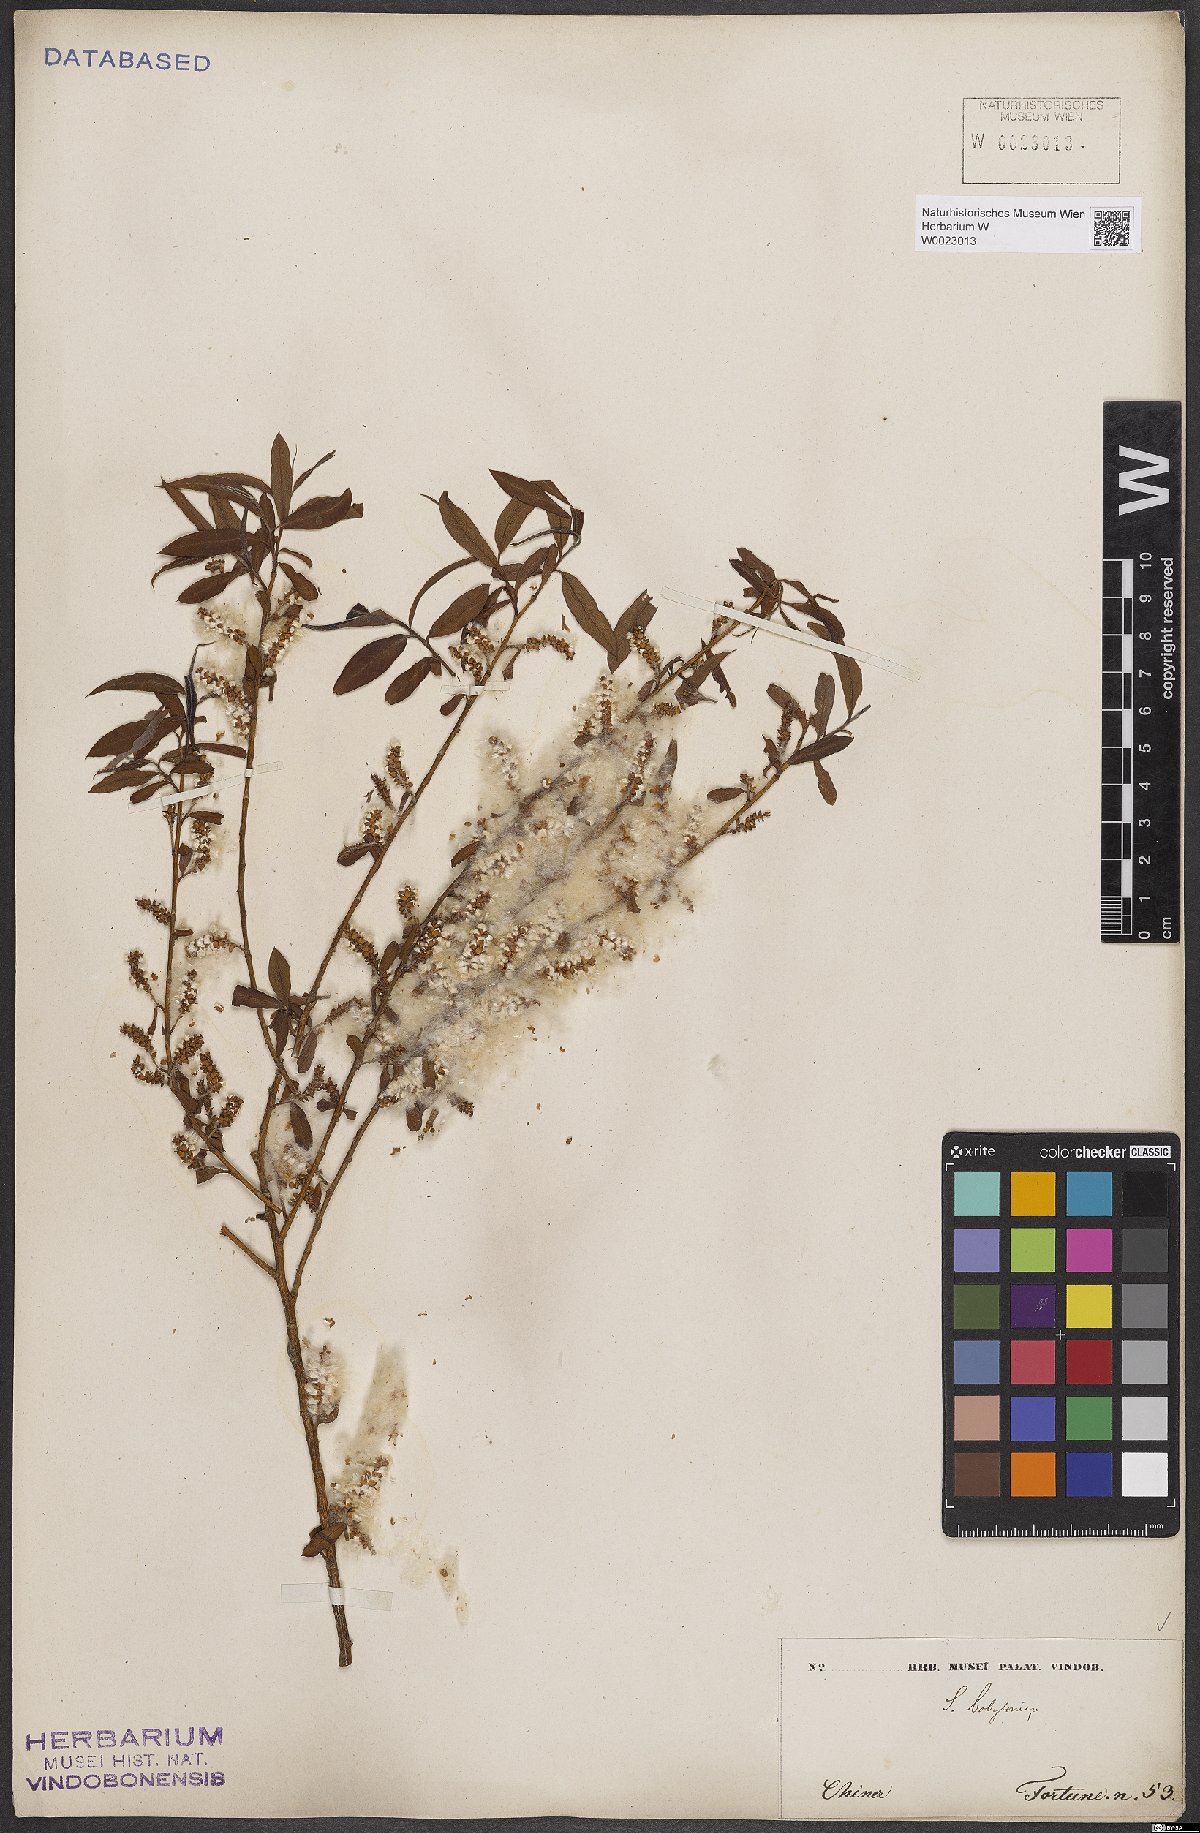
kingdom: Plantae
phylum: Tracheophyta
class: Magnoliopsida
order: Malpighiales
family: Salicaceae
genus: Salix
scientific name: Salix babylonica
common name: Weeping willow
